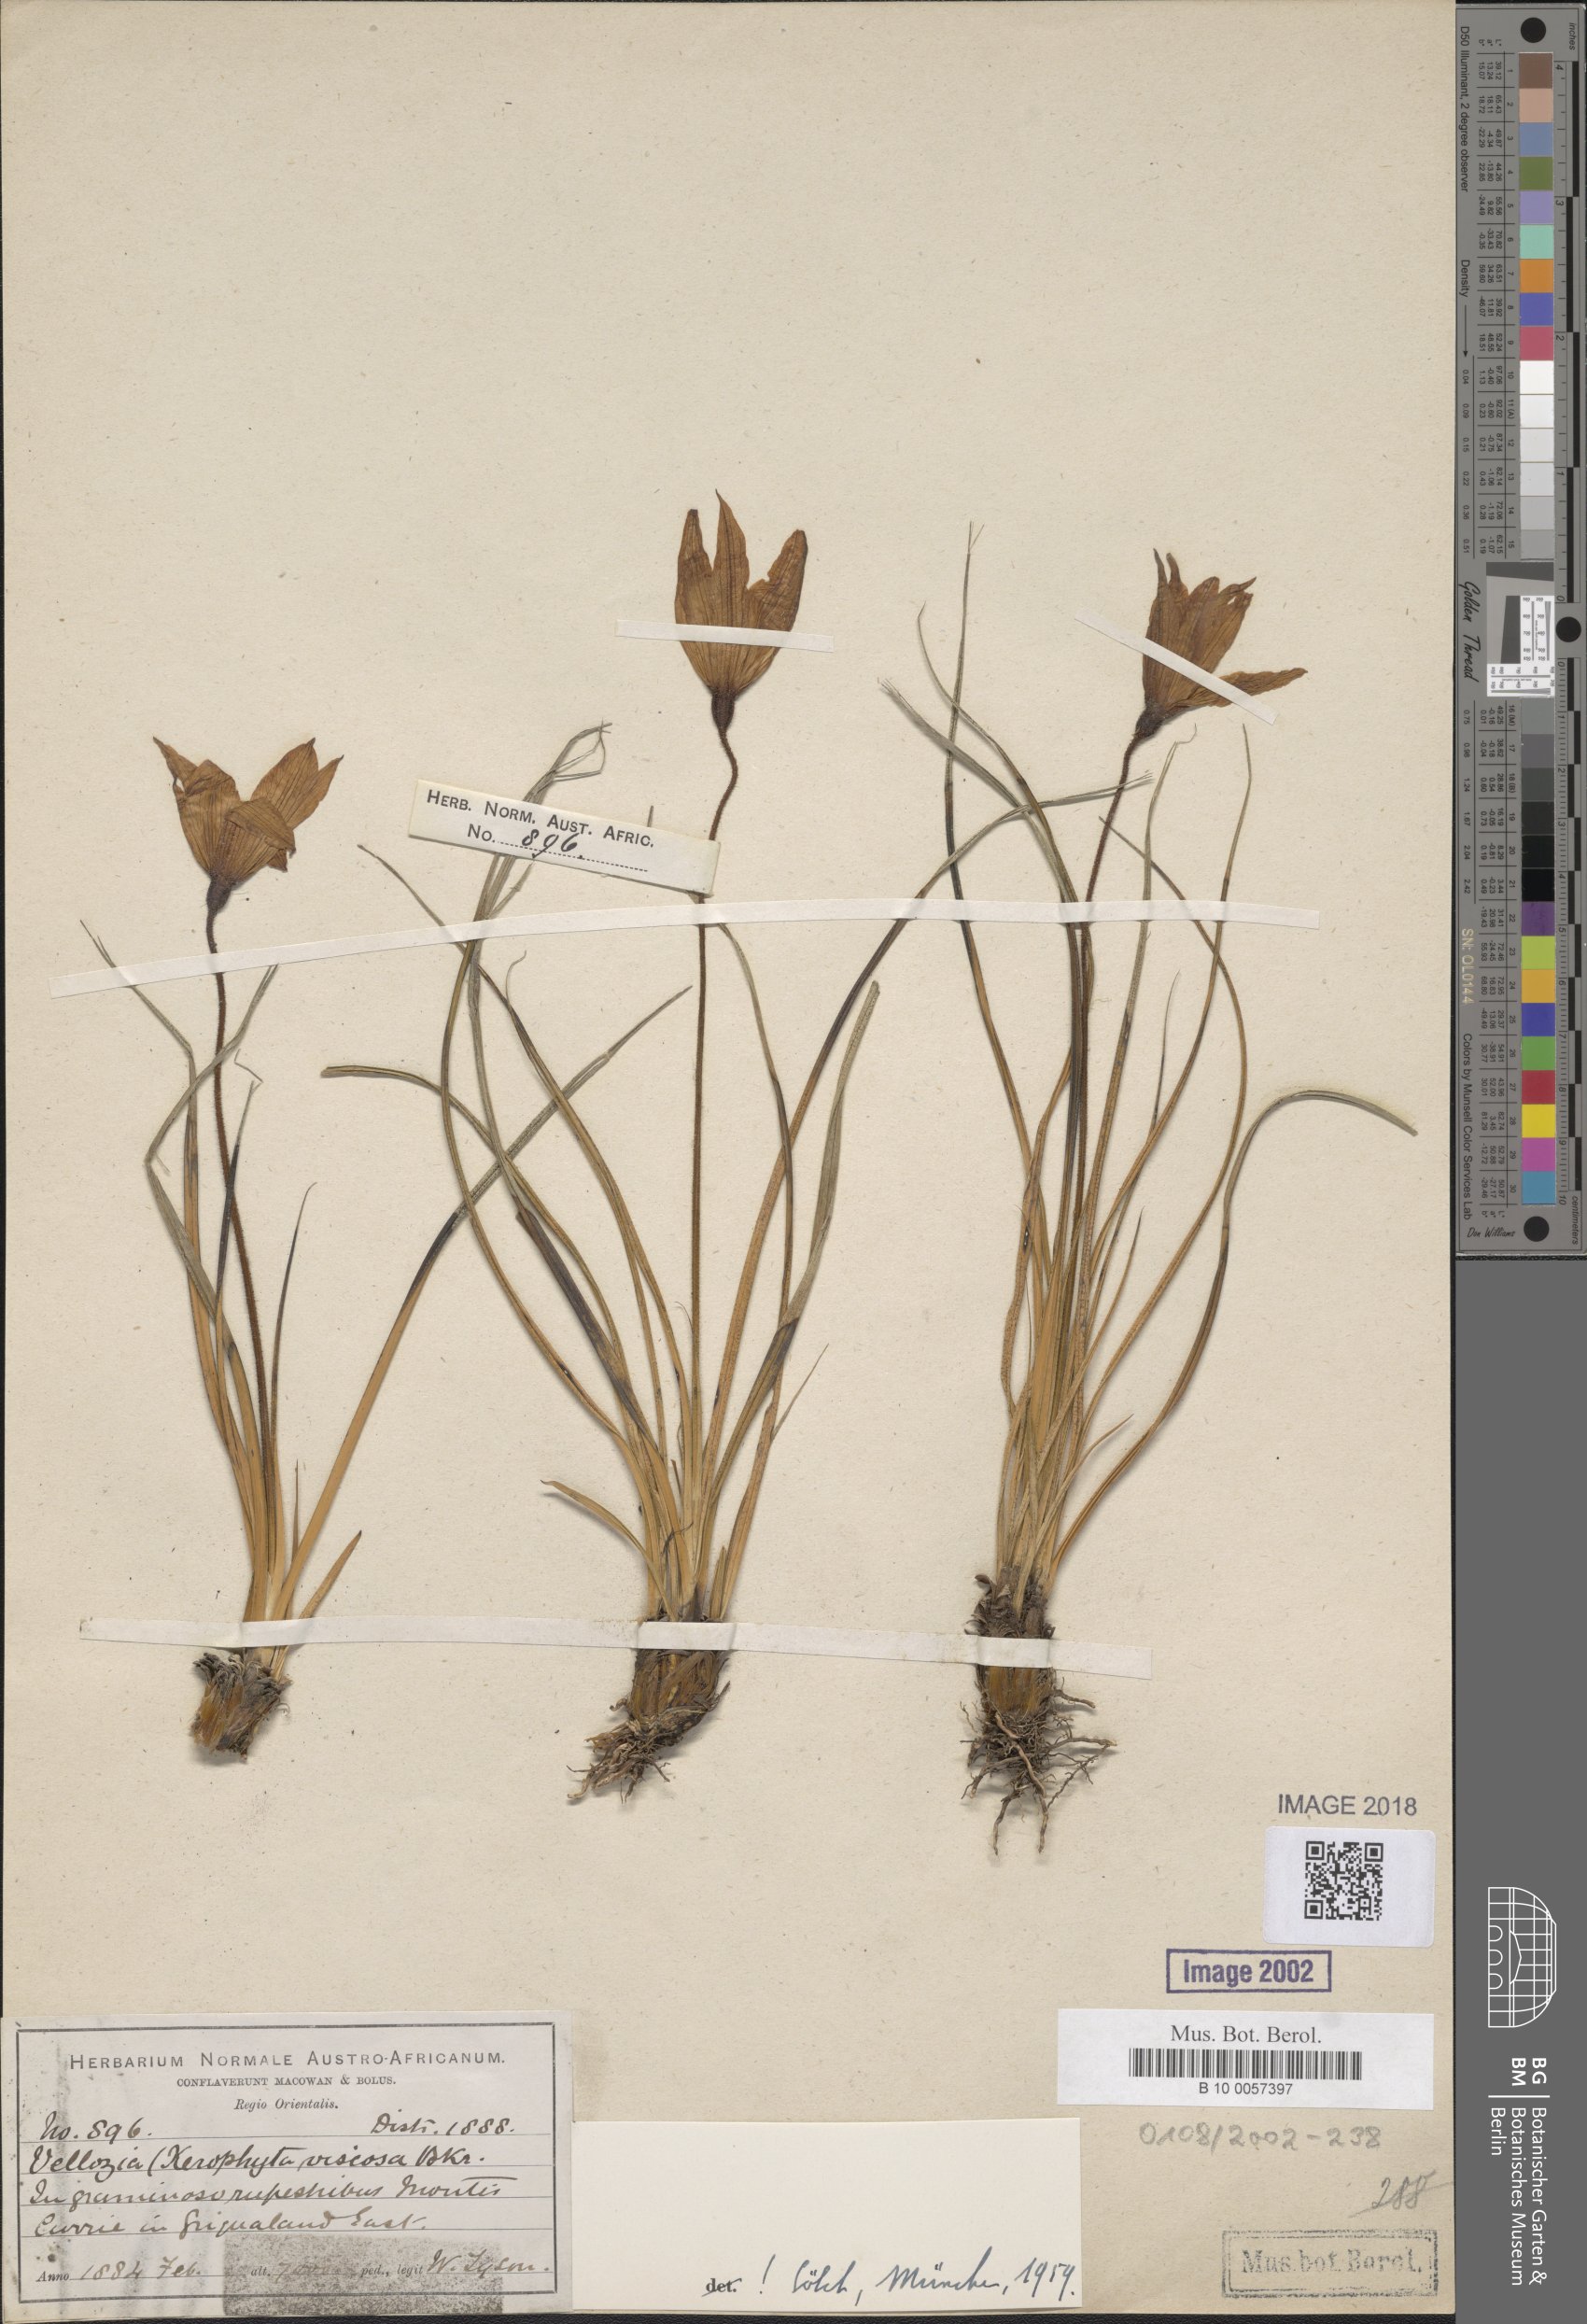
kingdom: Plantae
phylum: Tracheophyta
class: Liliopsida
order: Pandanales
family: Velloziaceae
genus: Xerophyta
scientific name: Xerophyta viscosa
